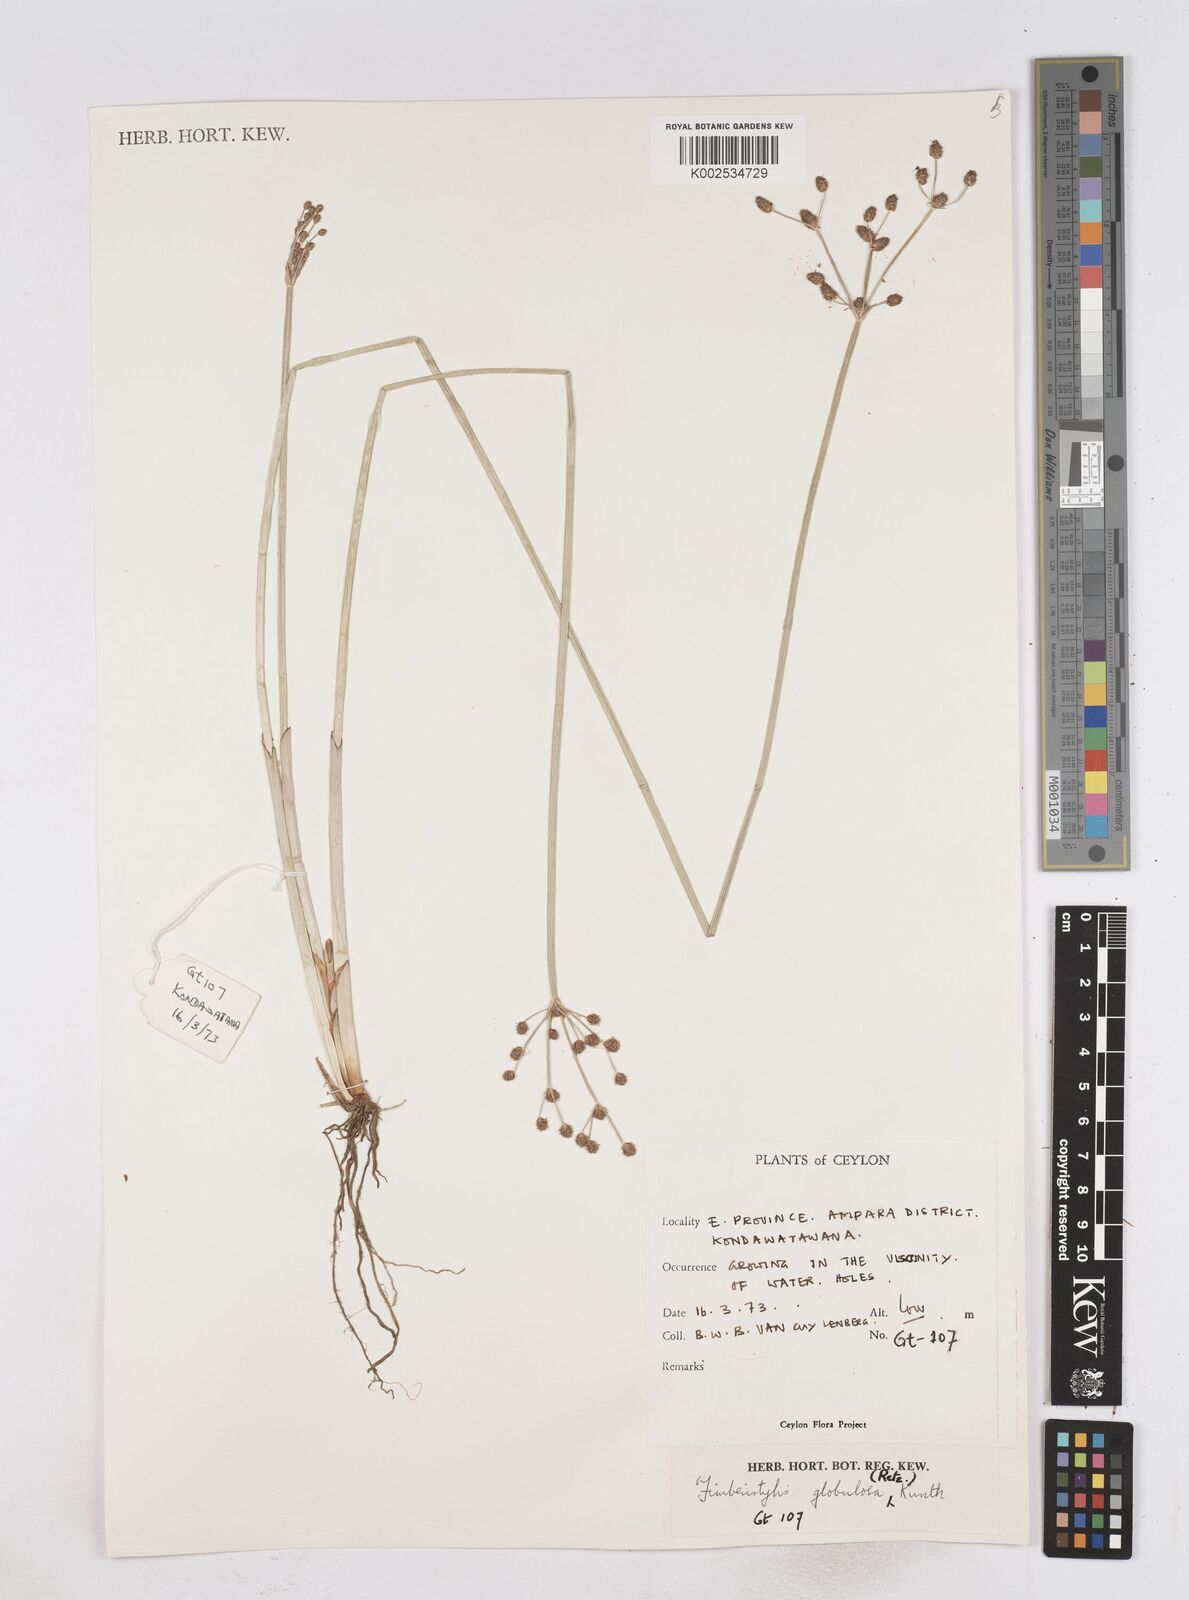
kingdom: Plantae
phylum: Tracheophyta
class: Liliopsida
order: Poales
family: Cyperaceae
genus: Fimbristylis
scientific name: Fimbristylis umbellaris
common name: Globular fimbristylis
